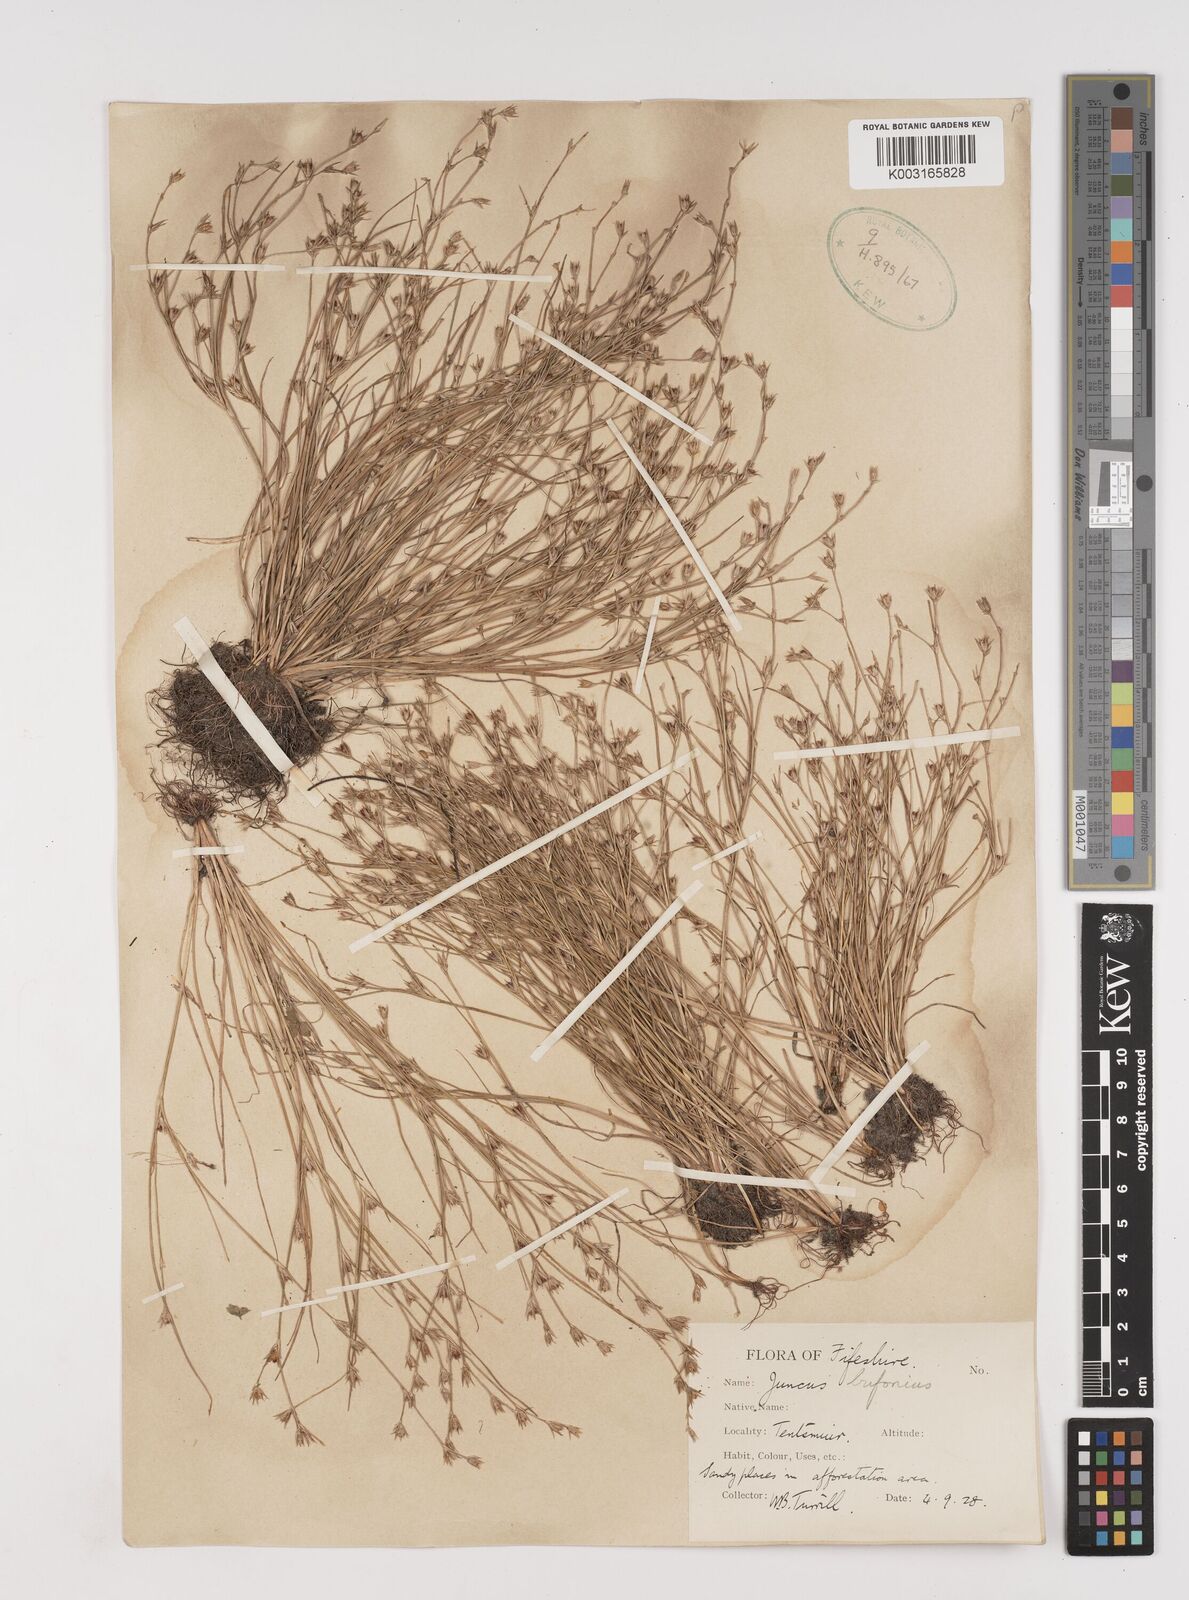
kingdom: Plantae
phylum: Tracheophyta
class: Liliopsida
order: Poales
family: Juncaceae
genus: Juncus
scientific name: Juncus bufonius
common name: Toad rush
